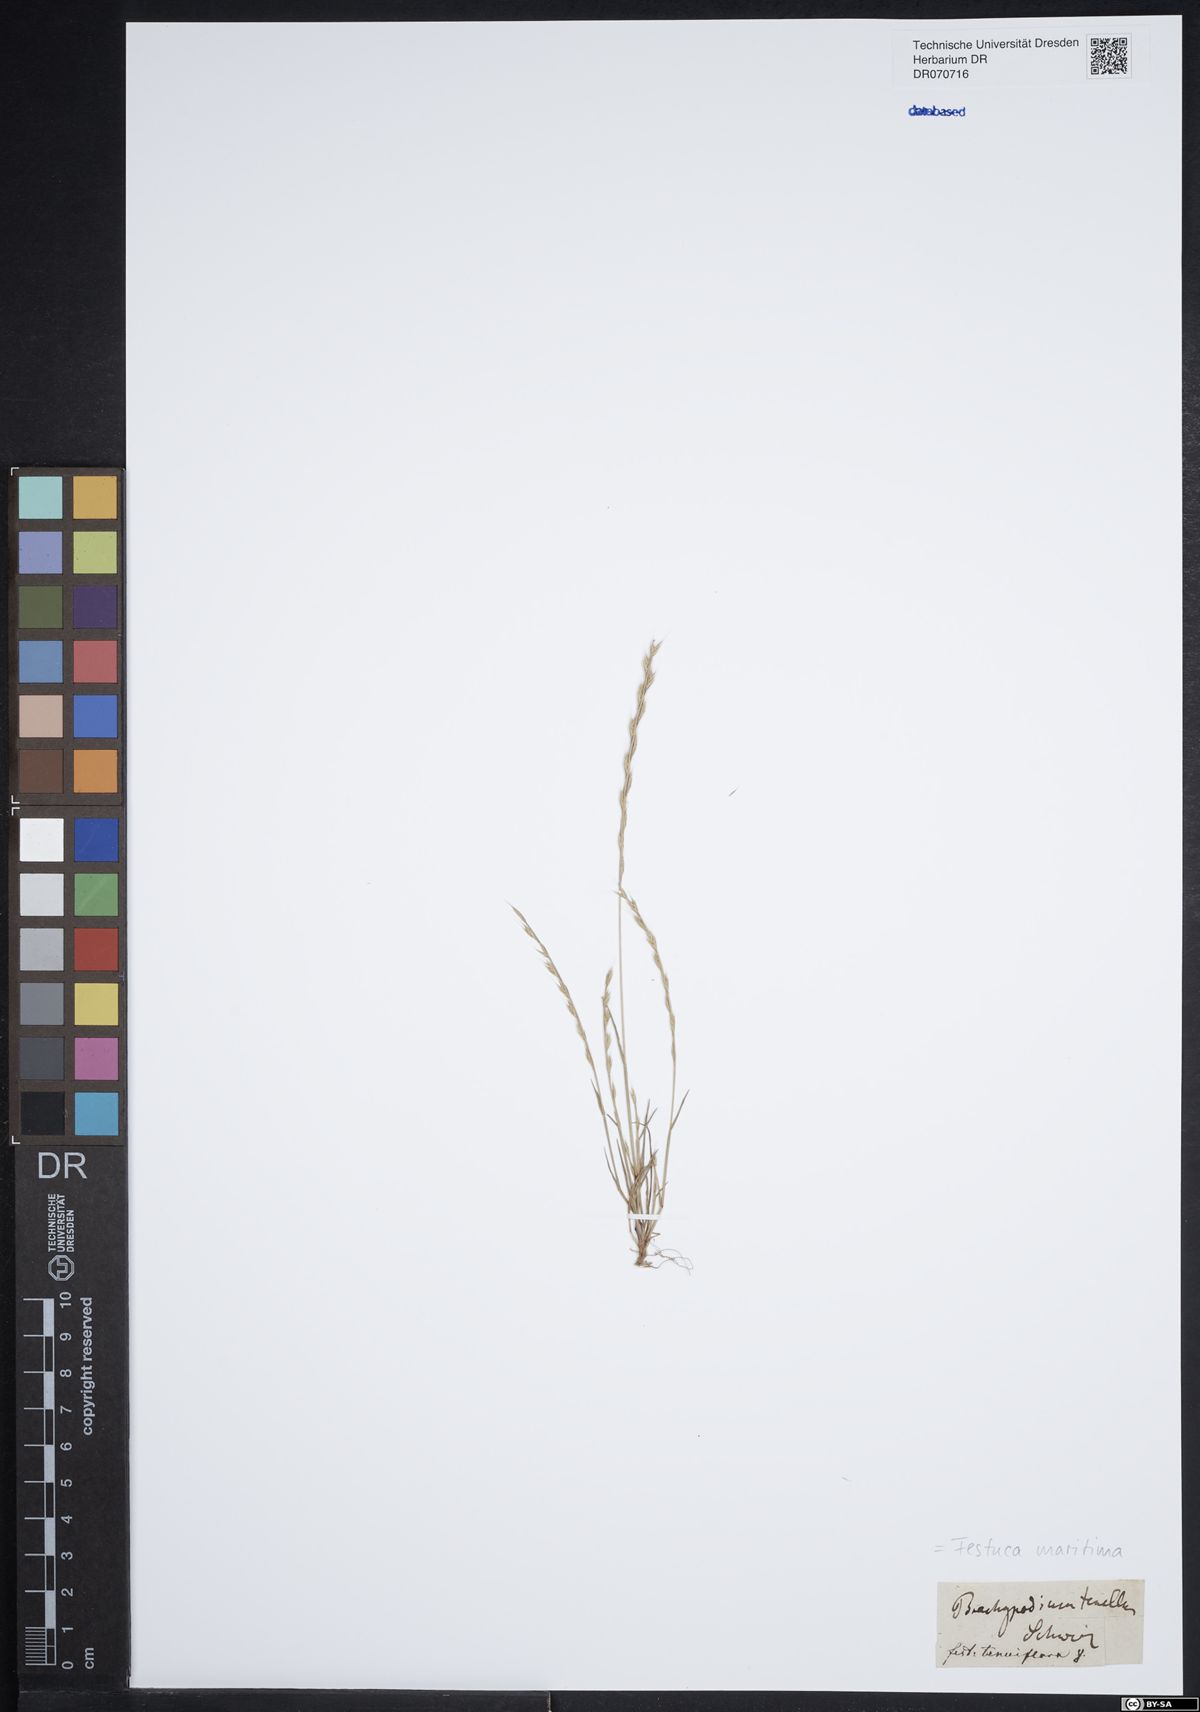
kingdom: Plantae
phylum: Tracheophyta
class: Liliopsida
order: Poales
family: Poaceae
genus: Festuca
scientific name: Festuca maritima
